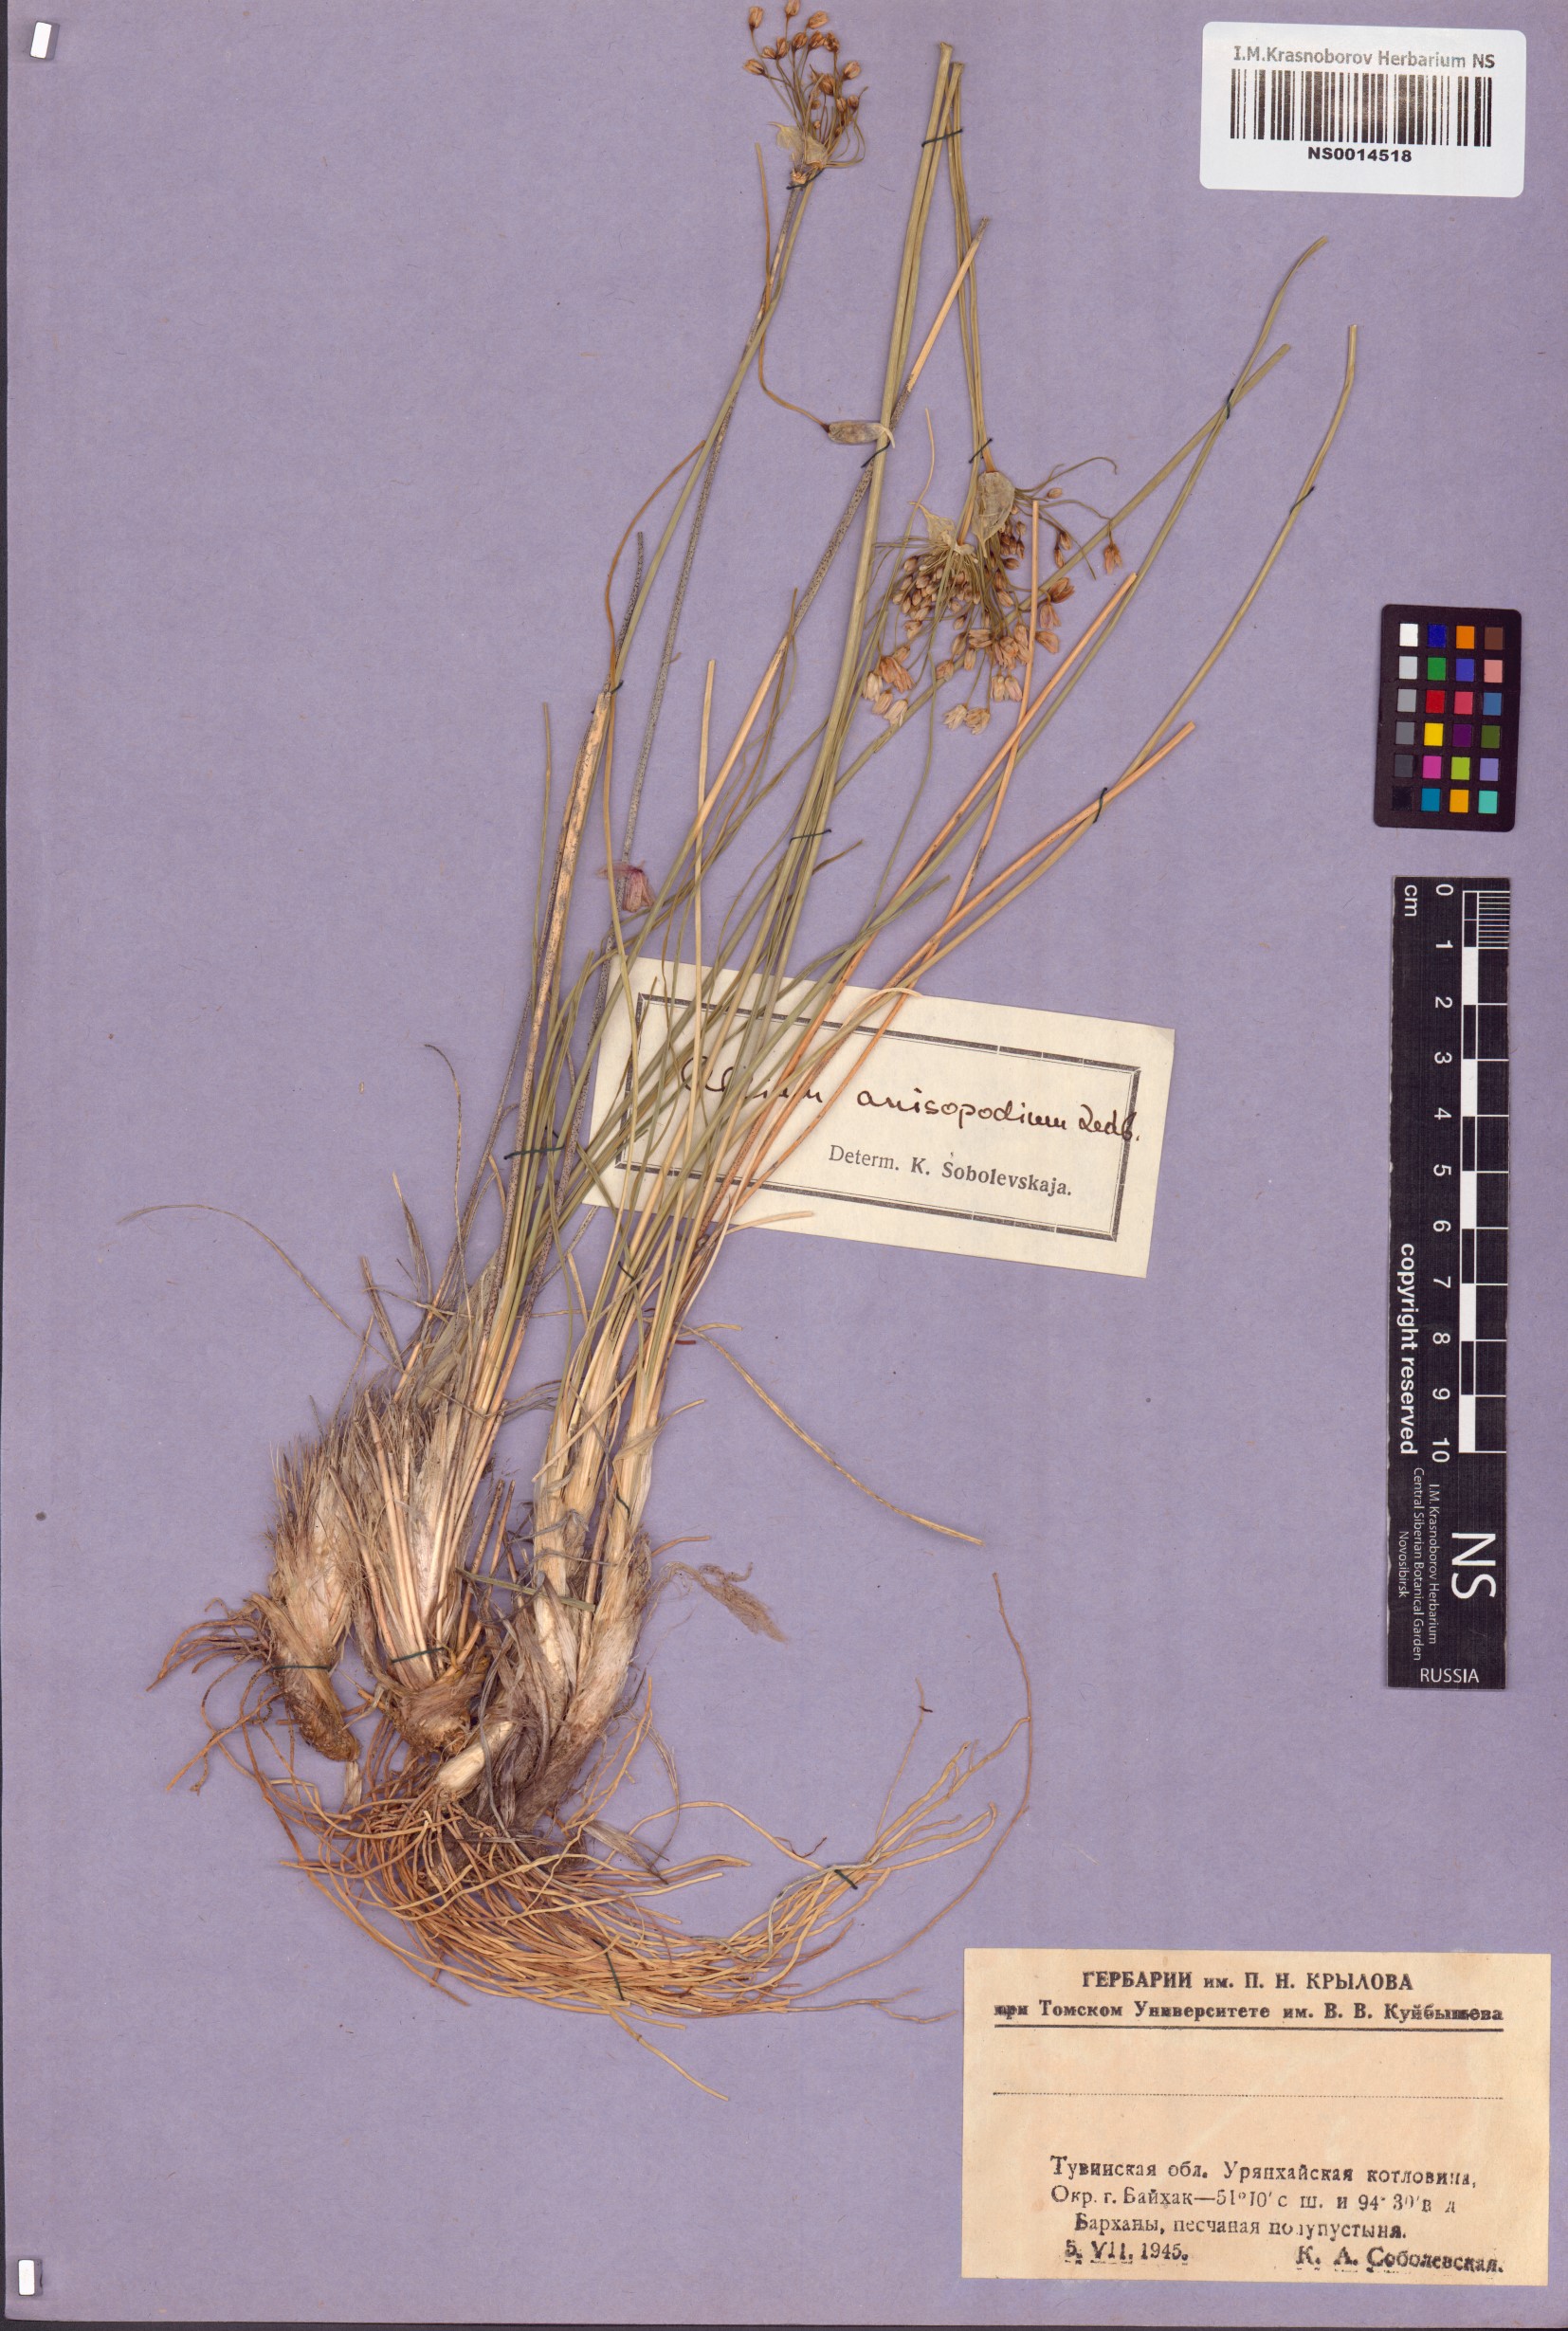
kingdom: Plantae
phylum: Tracheophyta
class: Liliopsida
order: Asparagales
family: Amaryllidaceae
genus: Allium
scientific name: Allium anisopodium
